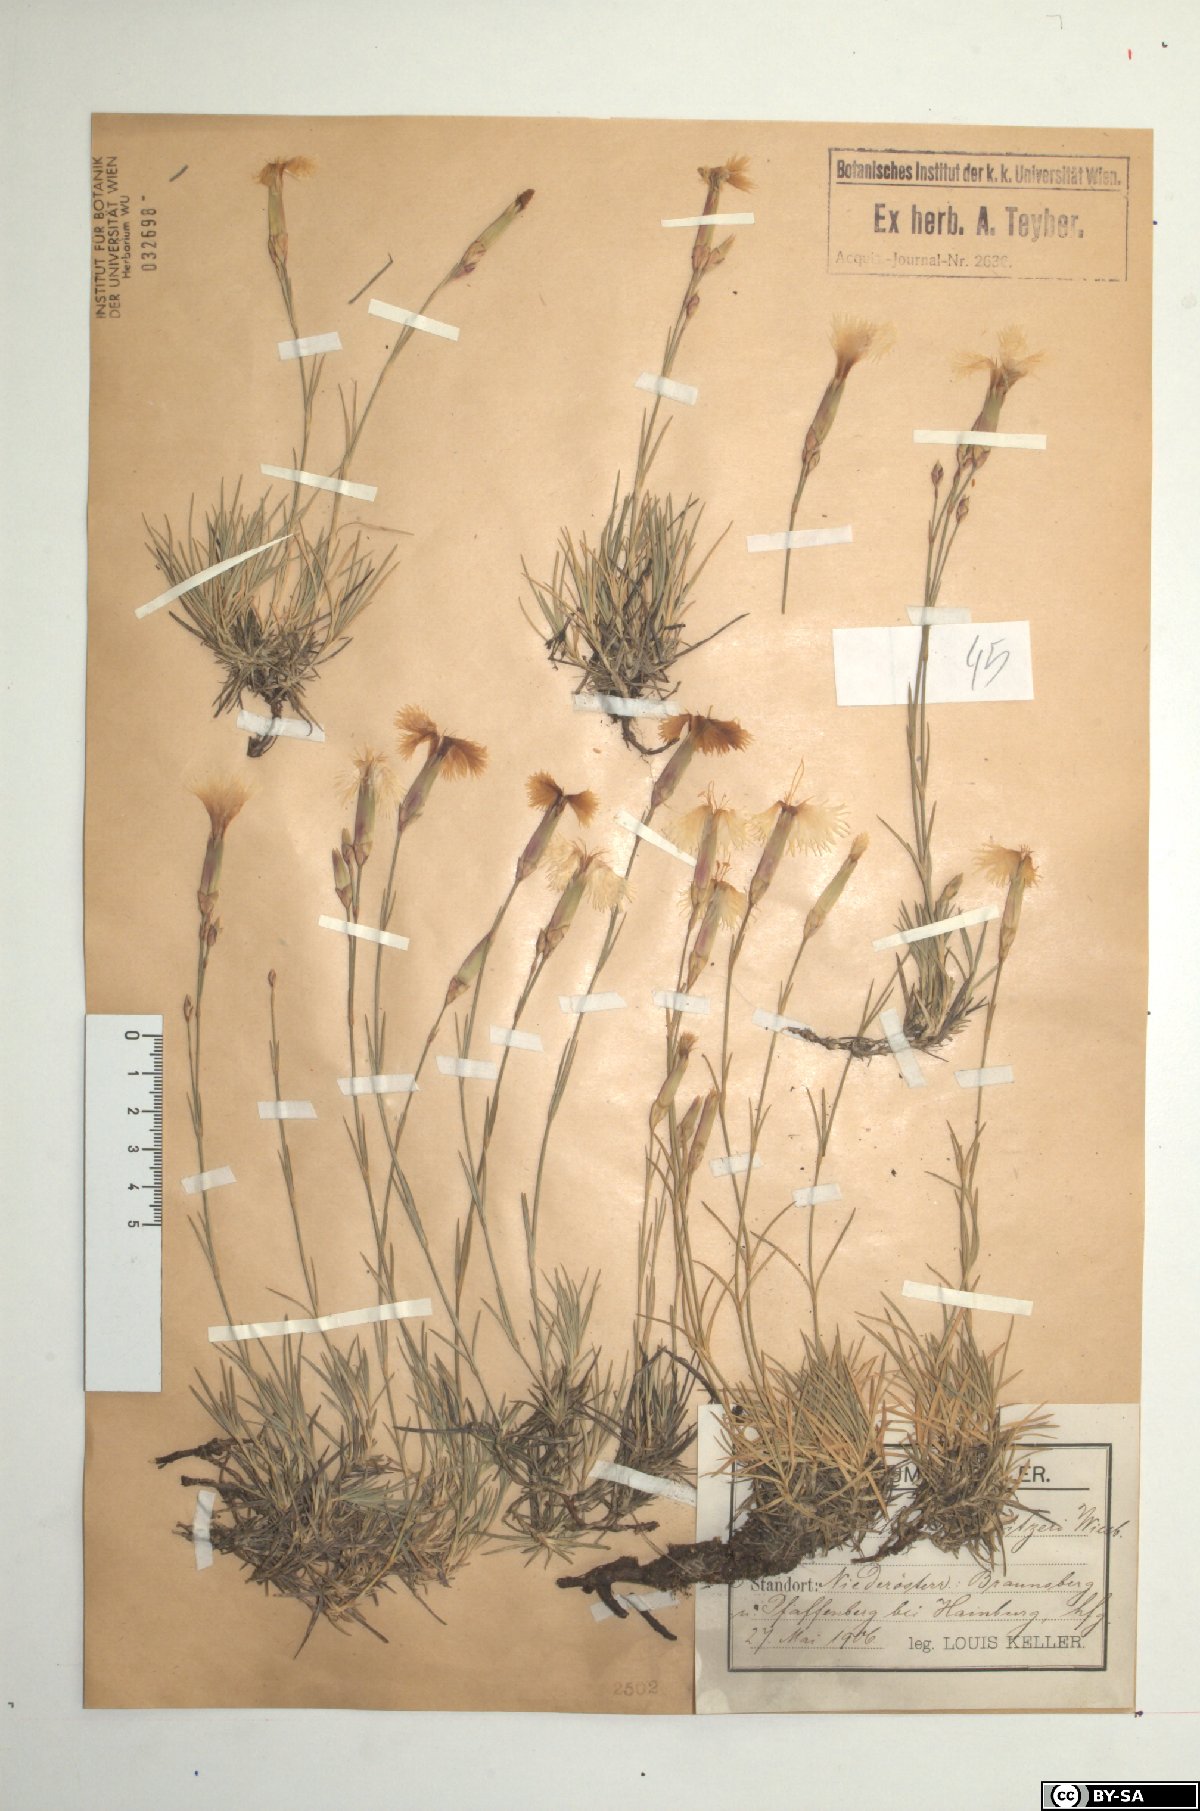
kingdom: Plantae
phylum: Tracheophyta
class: Magnoliopsida
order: Caryophyllales
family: Caryophyllaceae
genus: Dianthus
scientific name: Dianthus praecox
